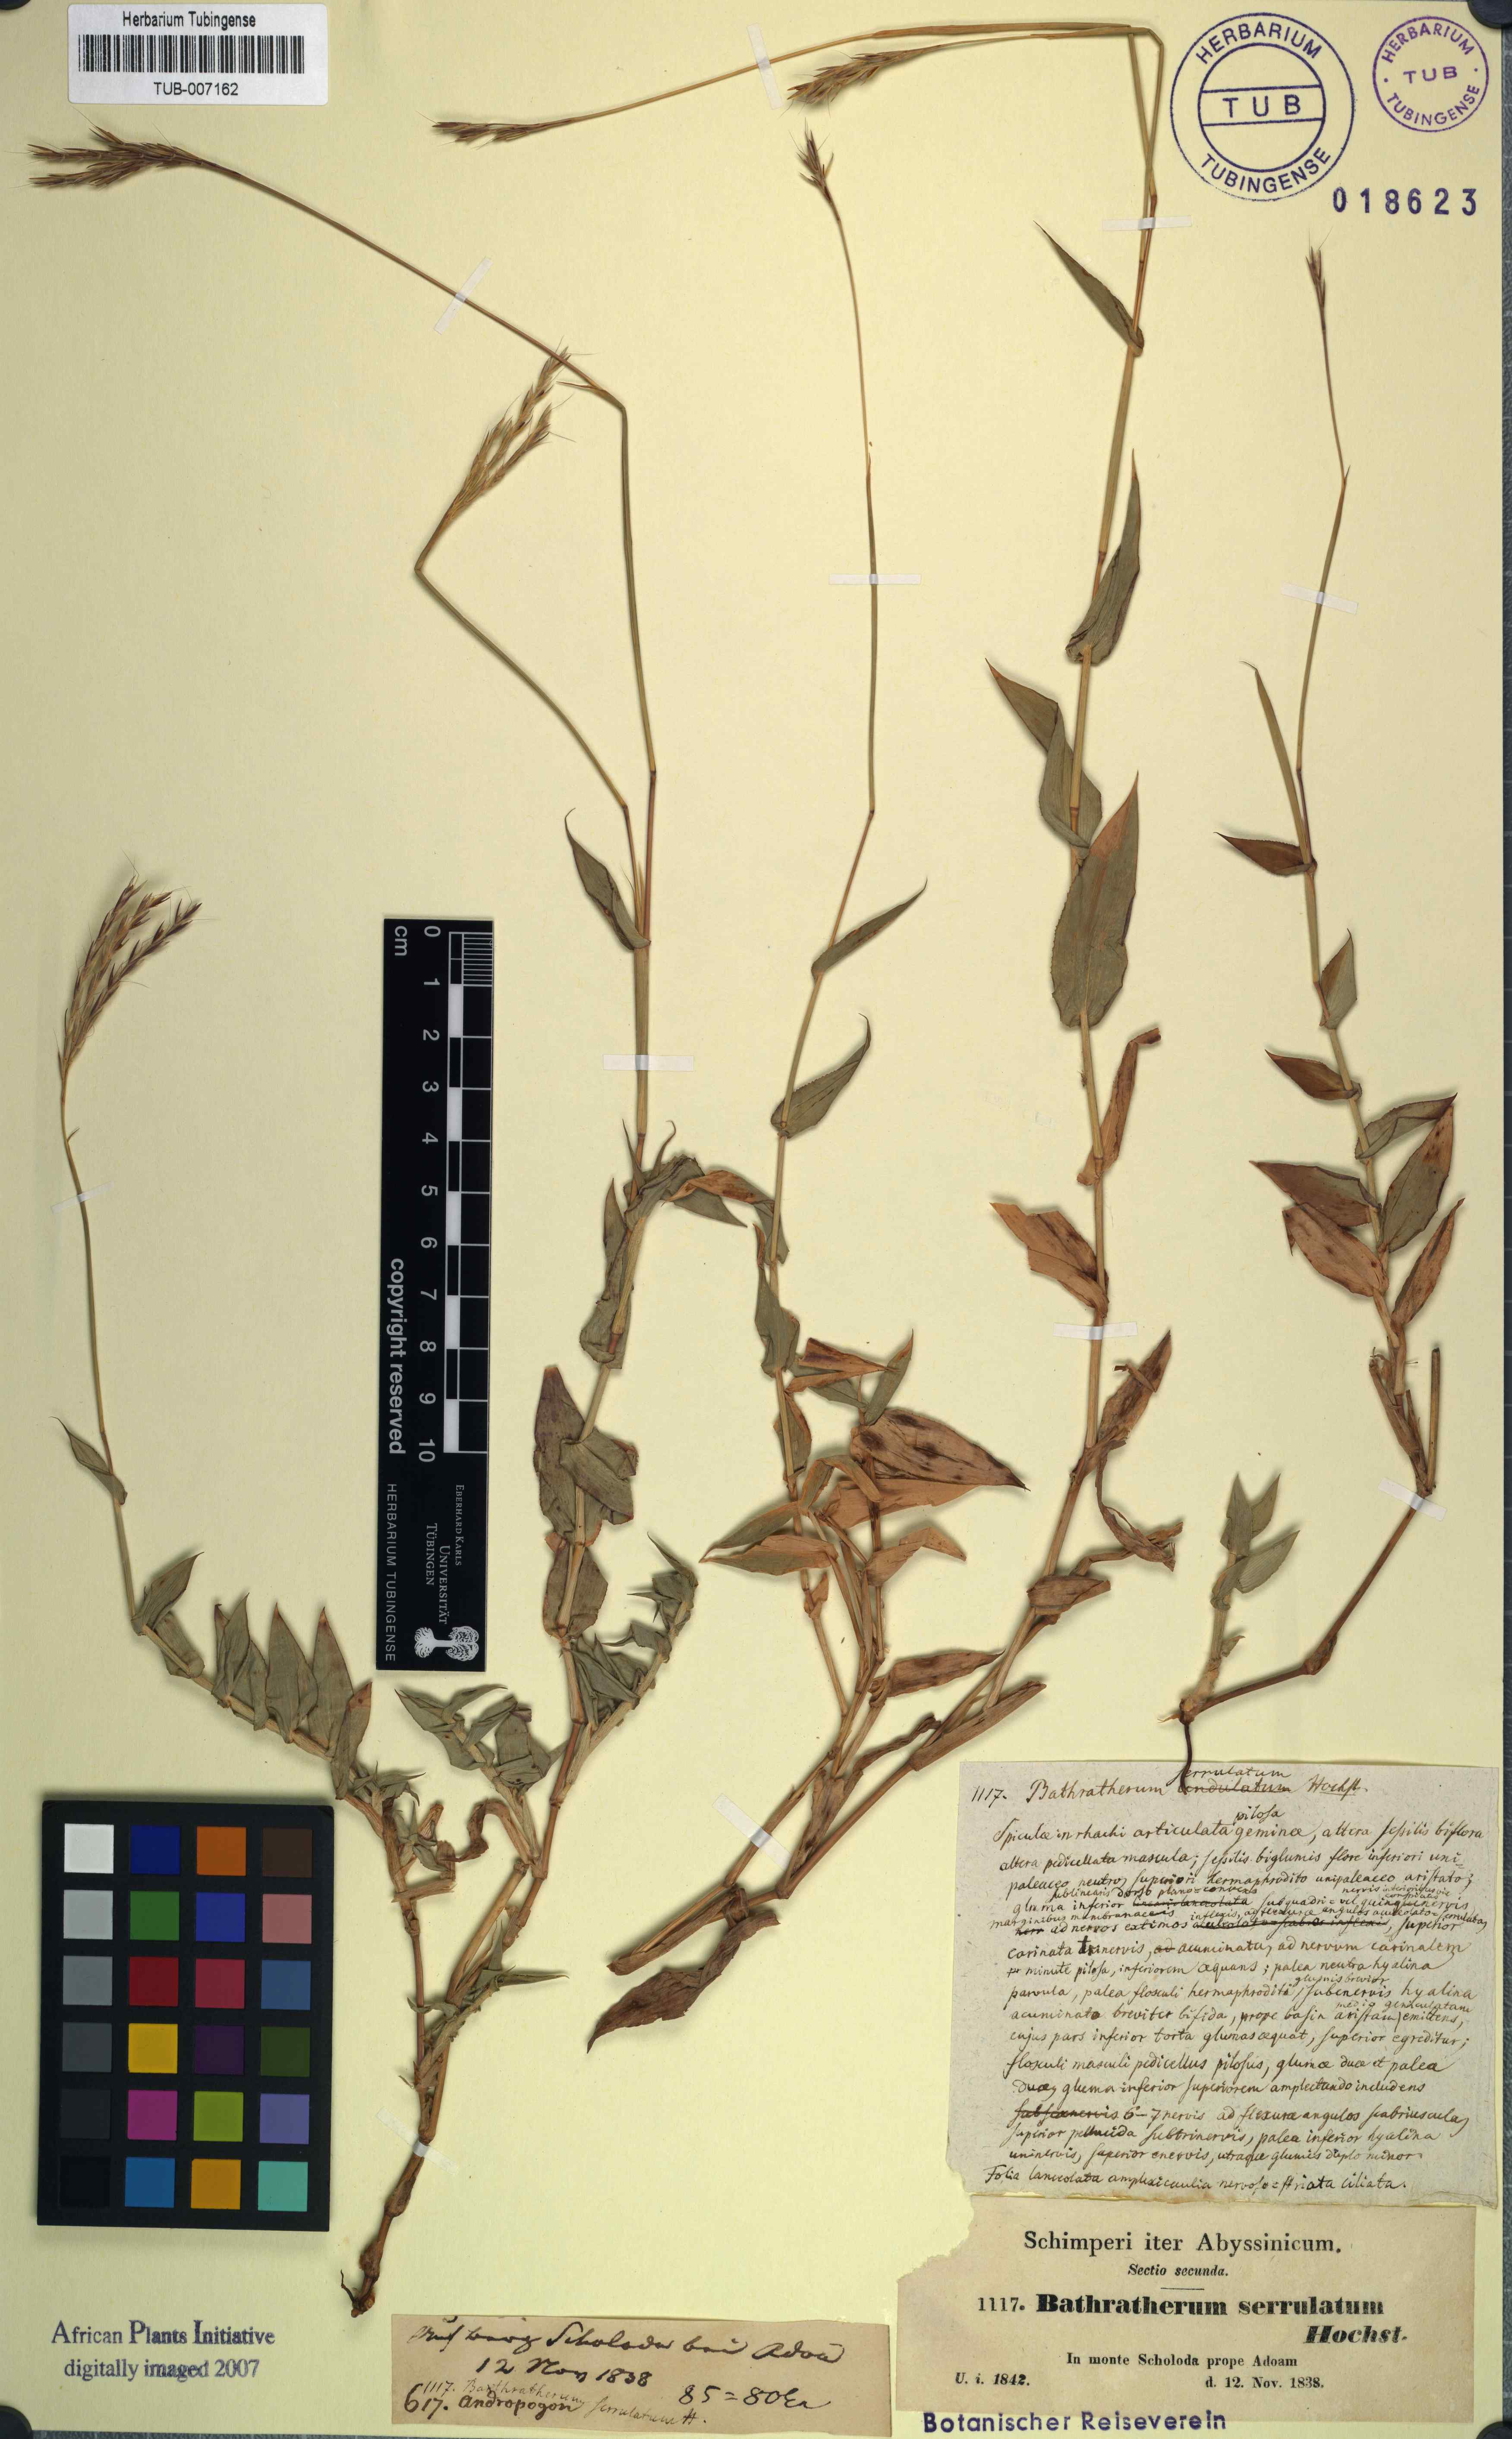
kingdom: Plantae
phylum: Tracheophyta
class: Liliopsida
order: Poales
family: Poaceae
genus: Arthraxon
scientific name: Arthraxon lanceolatus
